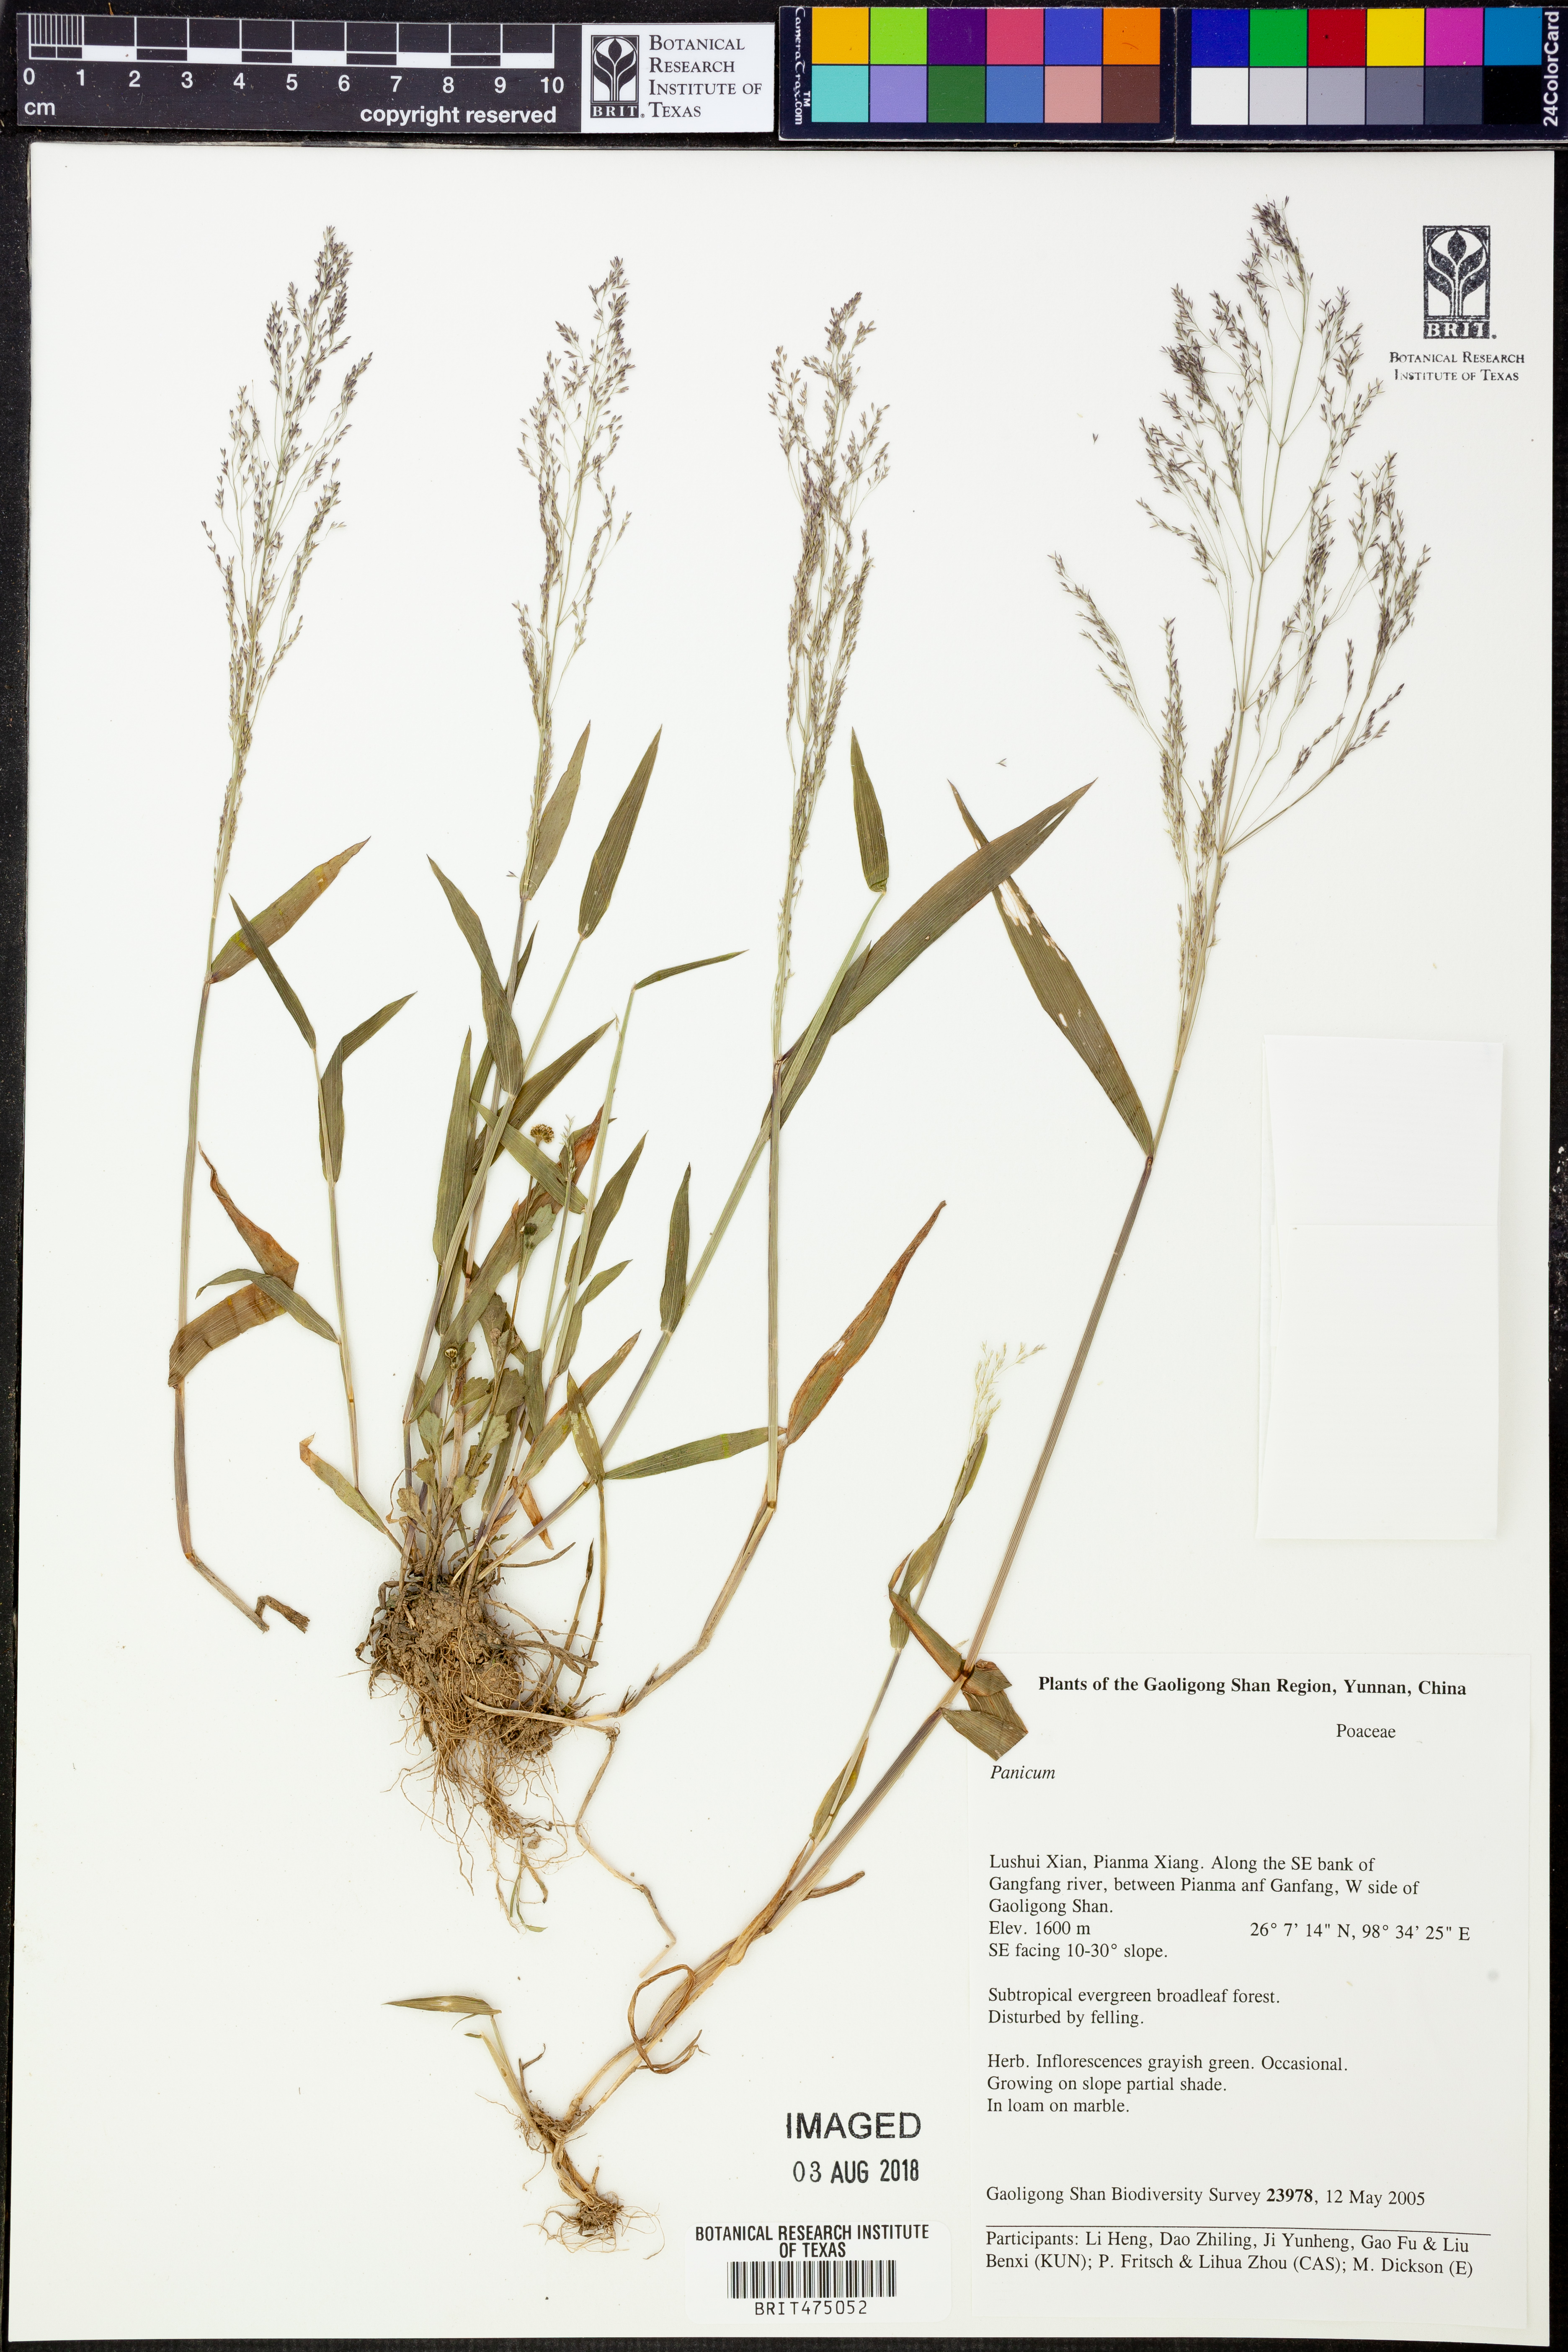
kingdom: Plantae
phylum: Tracheophyta
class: Liliopsida
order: Poales
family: Poaceae
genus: Panicum
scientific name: Panicum
